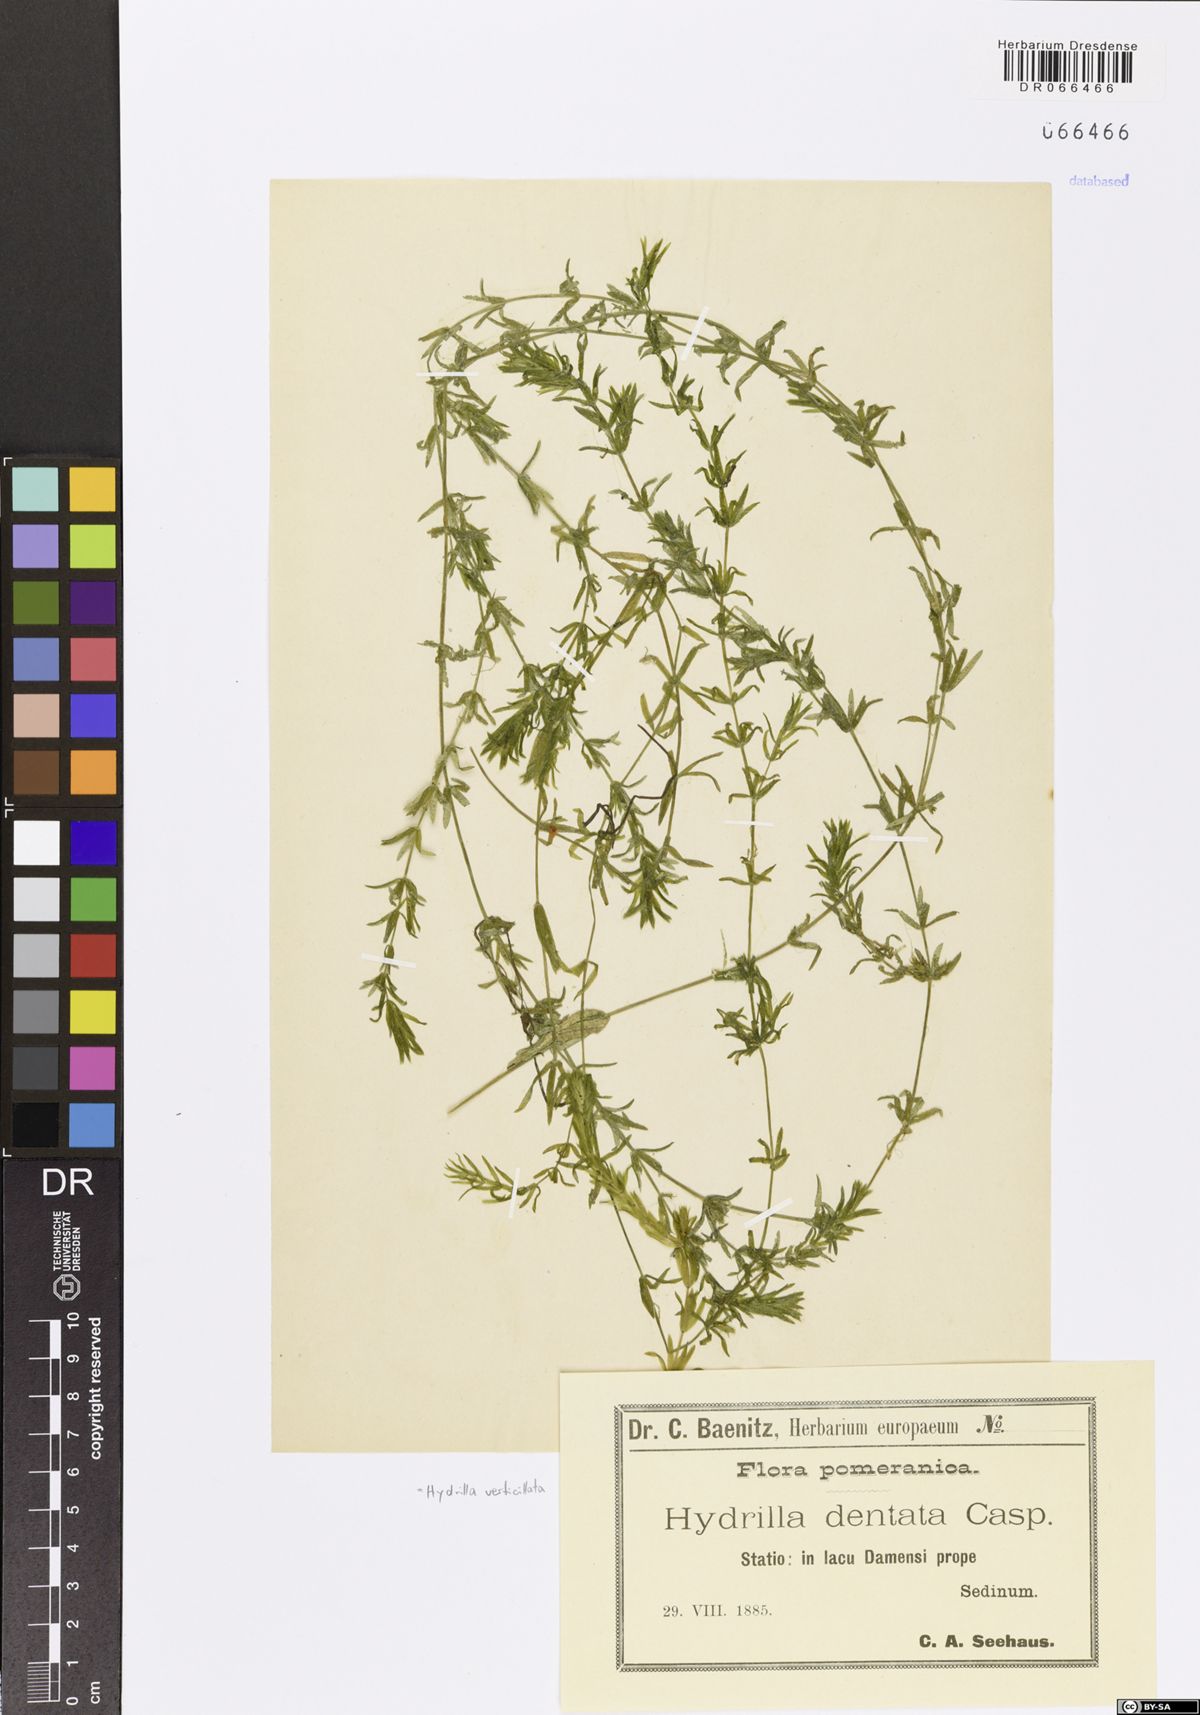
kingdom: Plantae
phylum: Tracheophyta
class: Liliopsida
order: Alismatales
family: Hydrocharitaceae
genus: Hydrilla
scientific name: Hydrilla verticillata
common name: Florida-elodea
